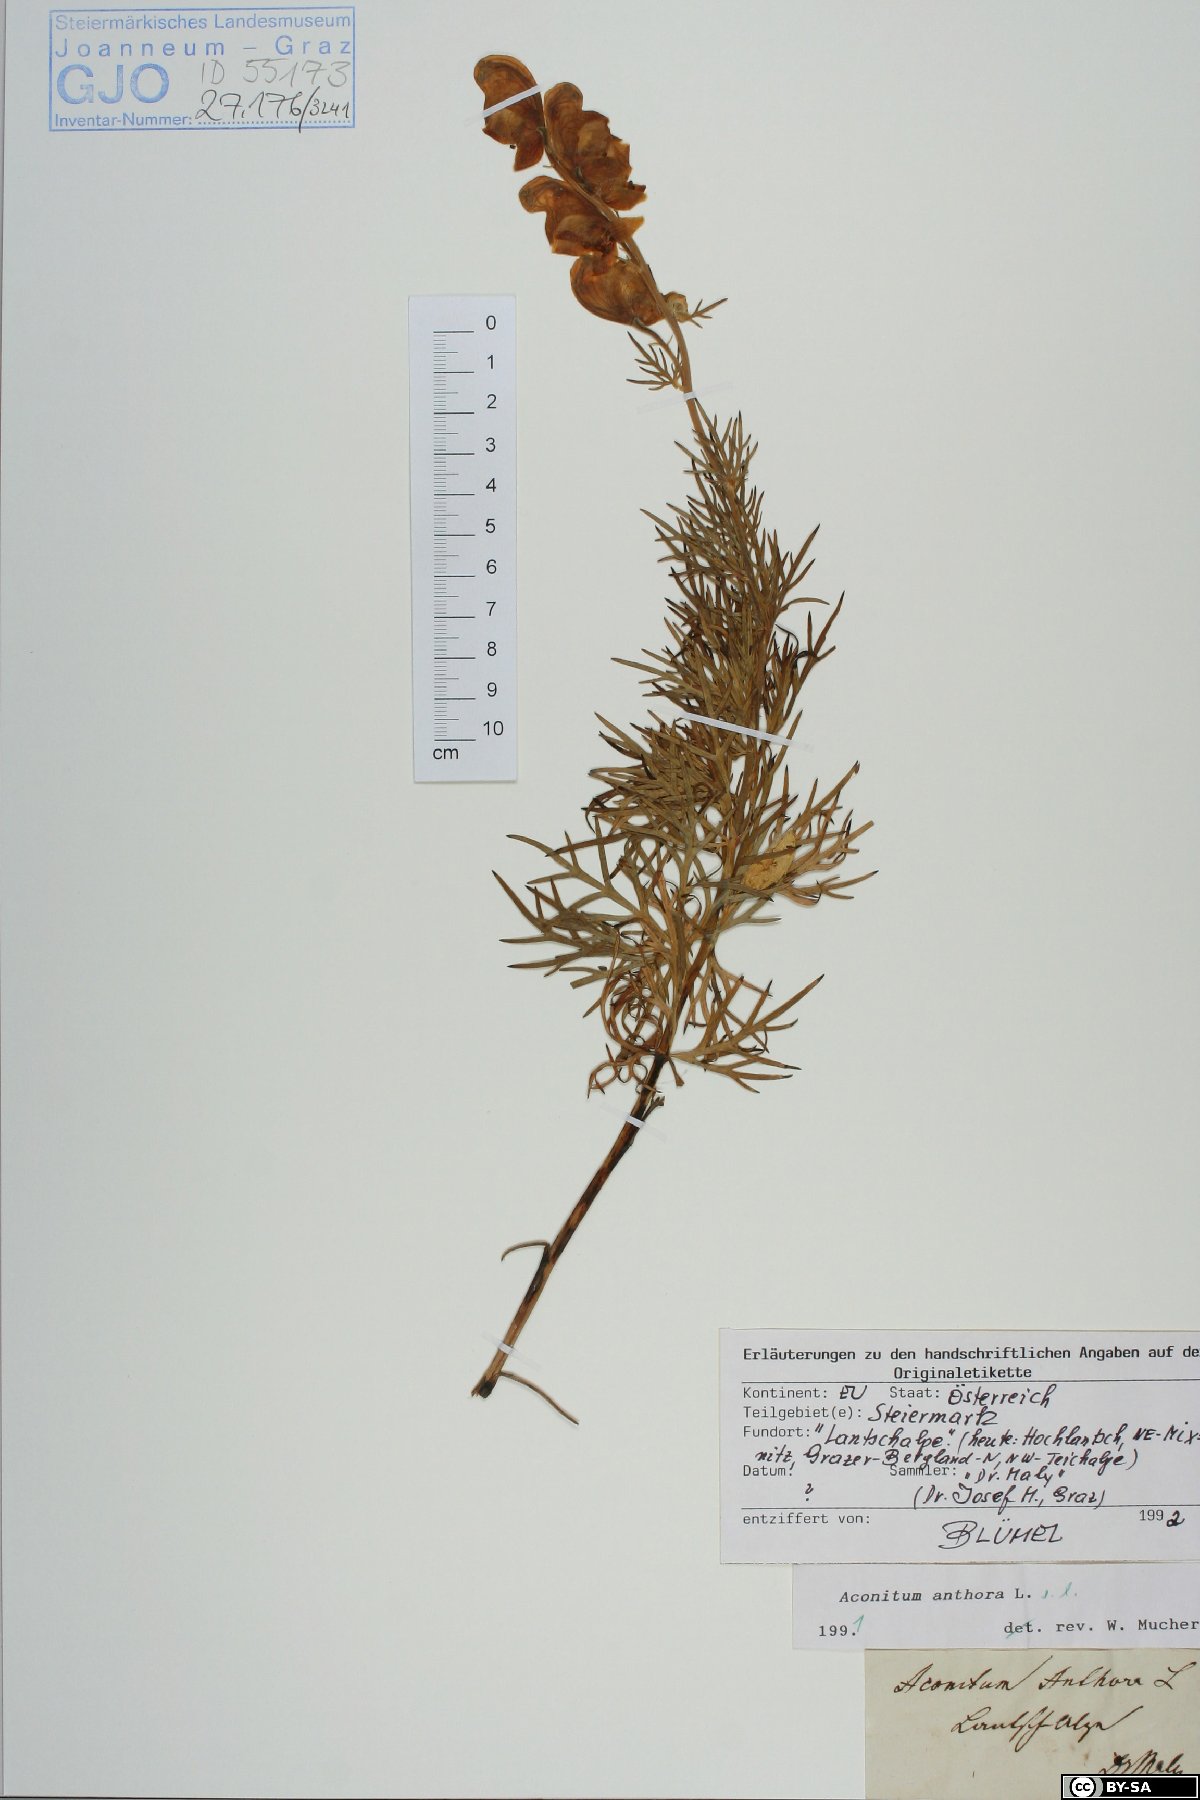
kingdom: Plantae
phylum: Tracheophyta
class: Magnoliopsida
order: Ranunculales
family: Ranunculaceae
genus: Aconitum
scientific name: Aconitum anthora
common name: Yellow monkshood
